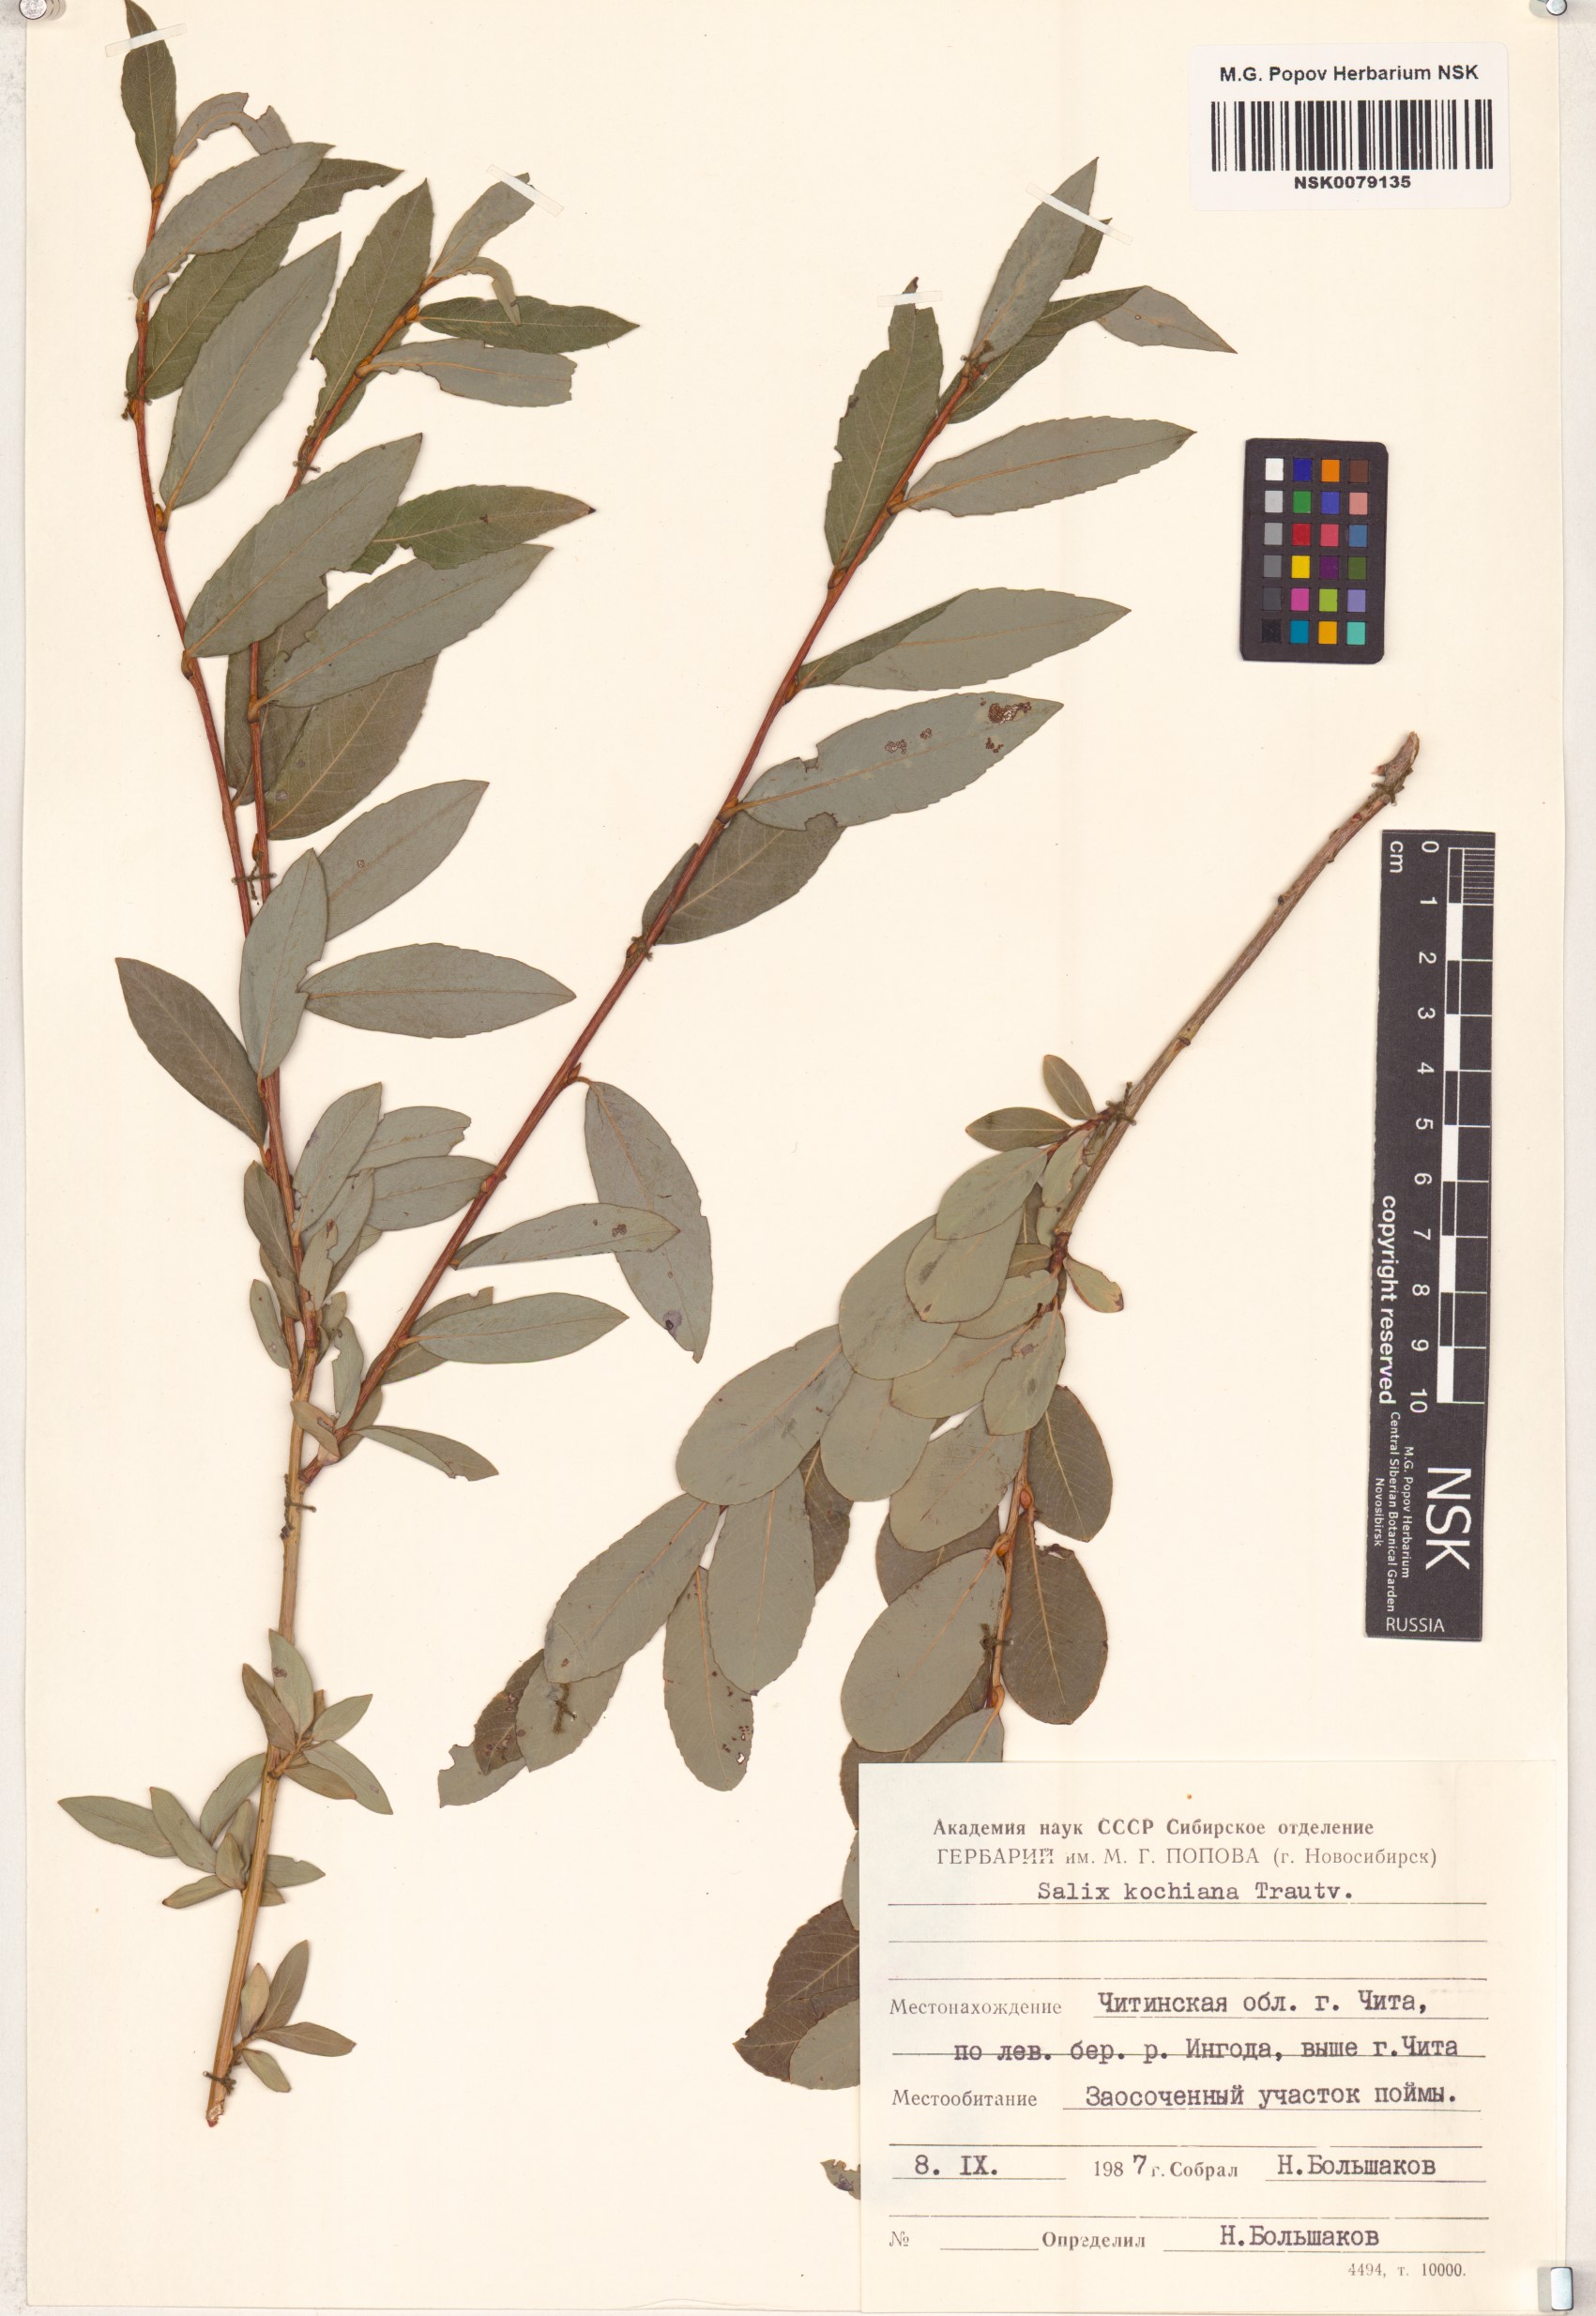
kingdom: Plantae
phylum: Tracheophyta
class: Magnoliopsida
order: Malpighiales
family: Salicaceae
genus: Salix
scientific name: Salix kochiana
